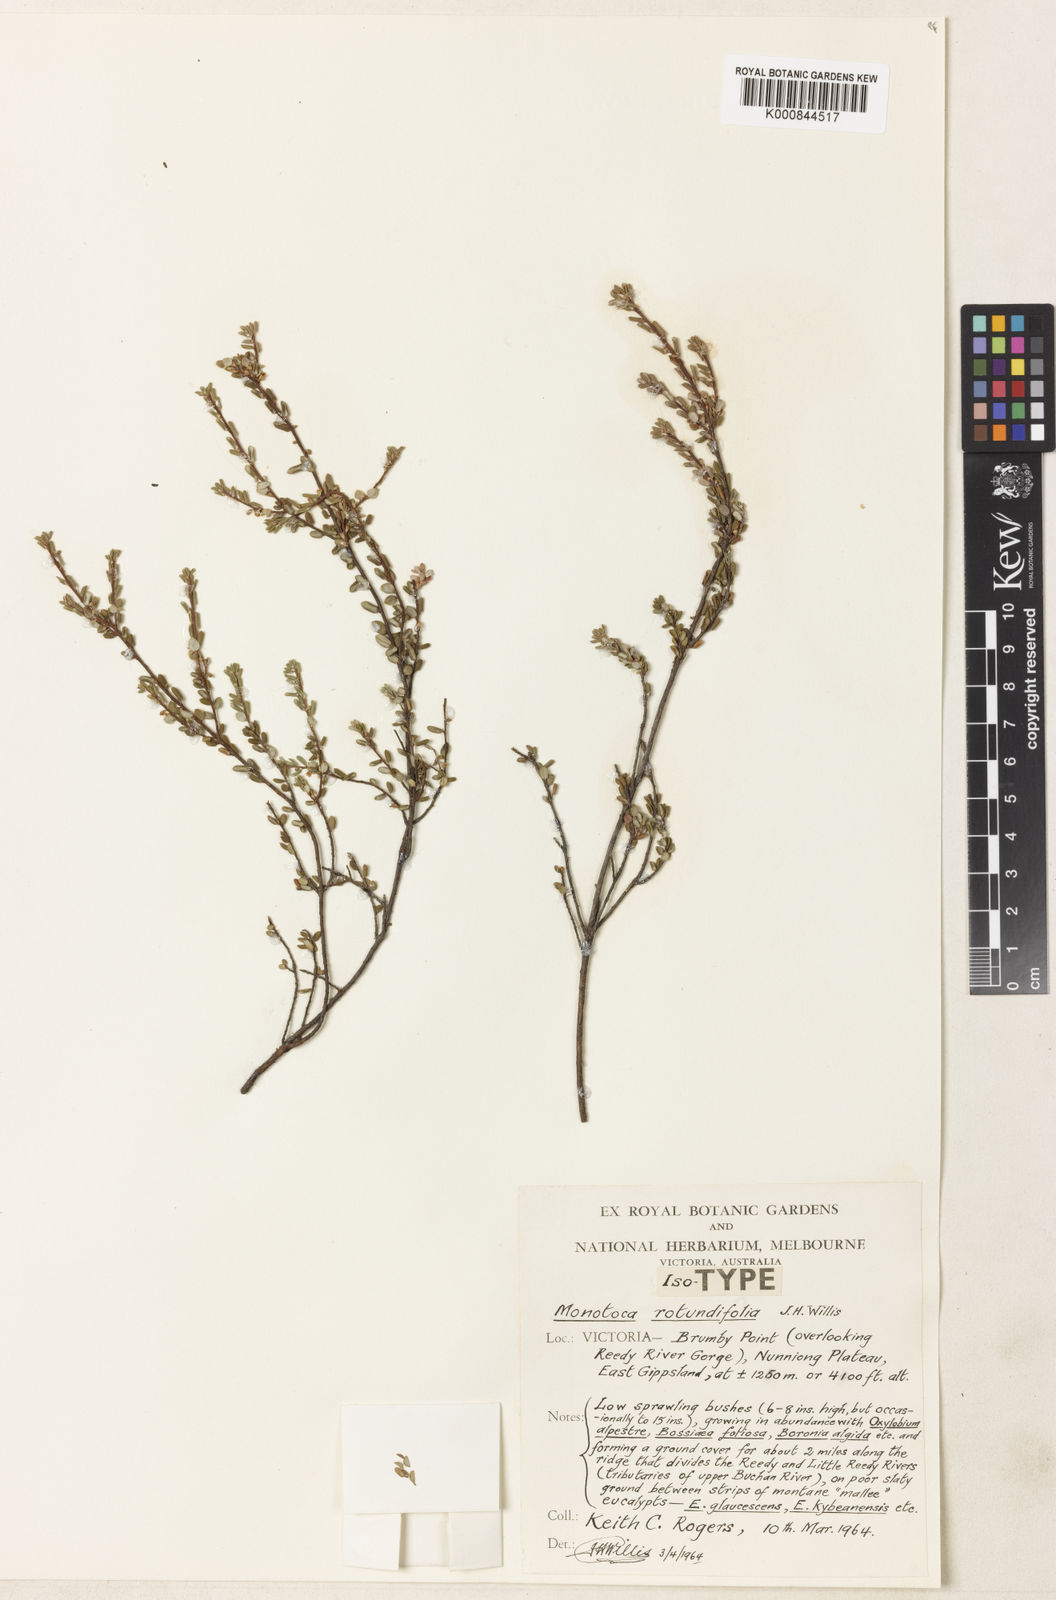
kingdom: Plantae
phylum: Tracheophyta
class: Magnoliopsida
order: Ericales
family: Ericaceae
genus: Monotoca
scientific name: Monotoca rotundifolia
